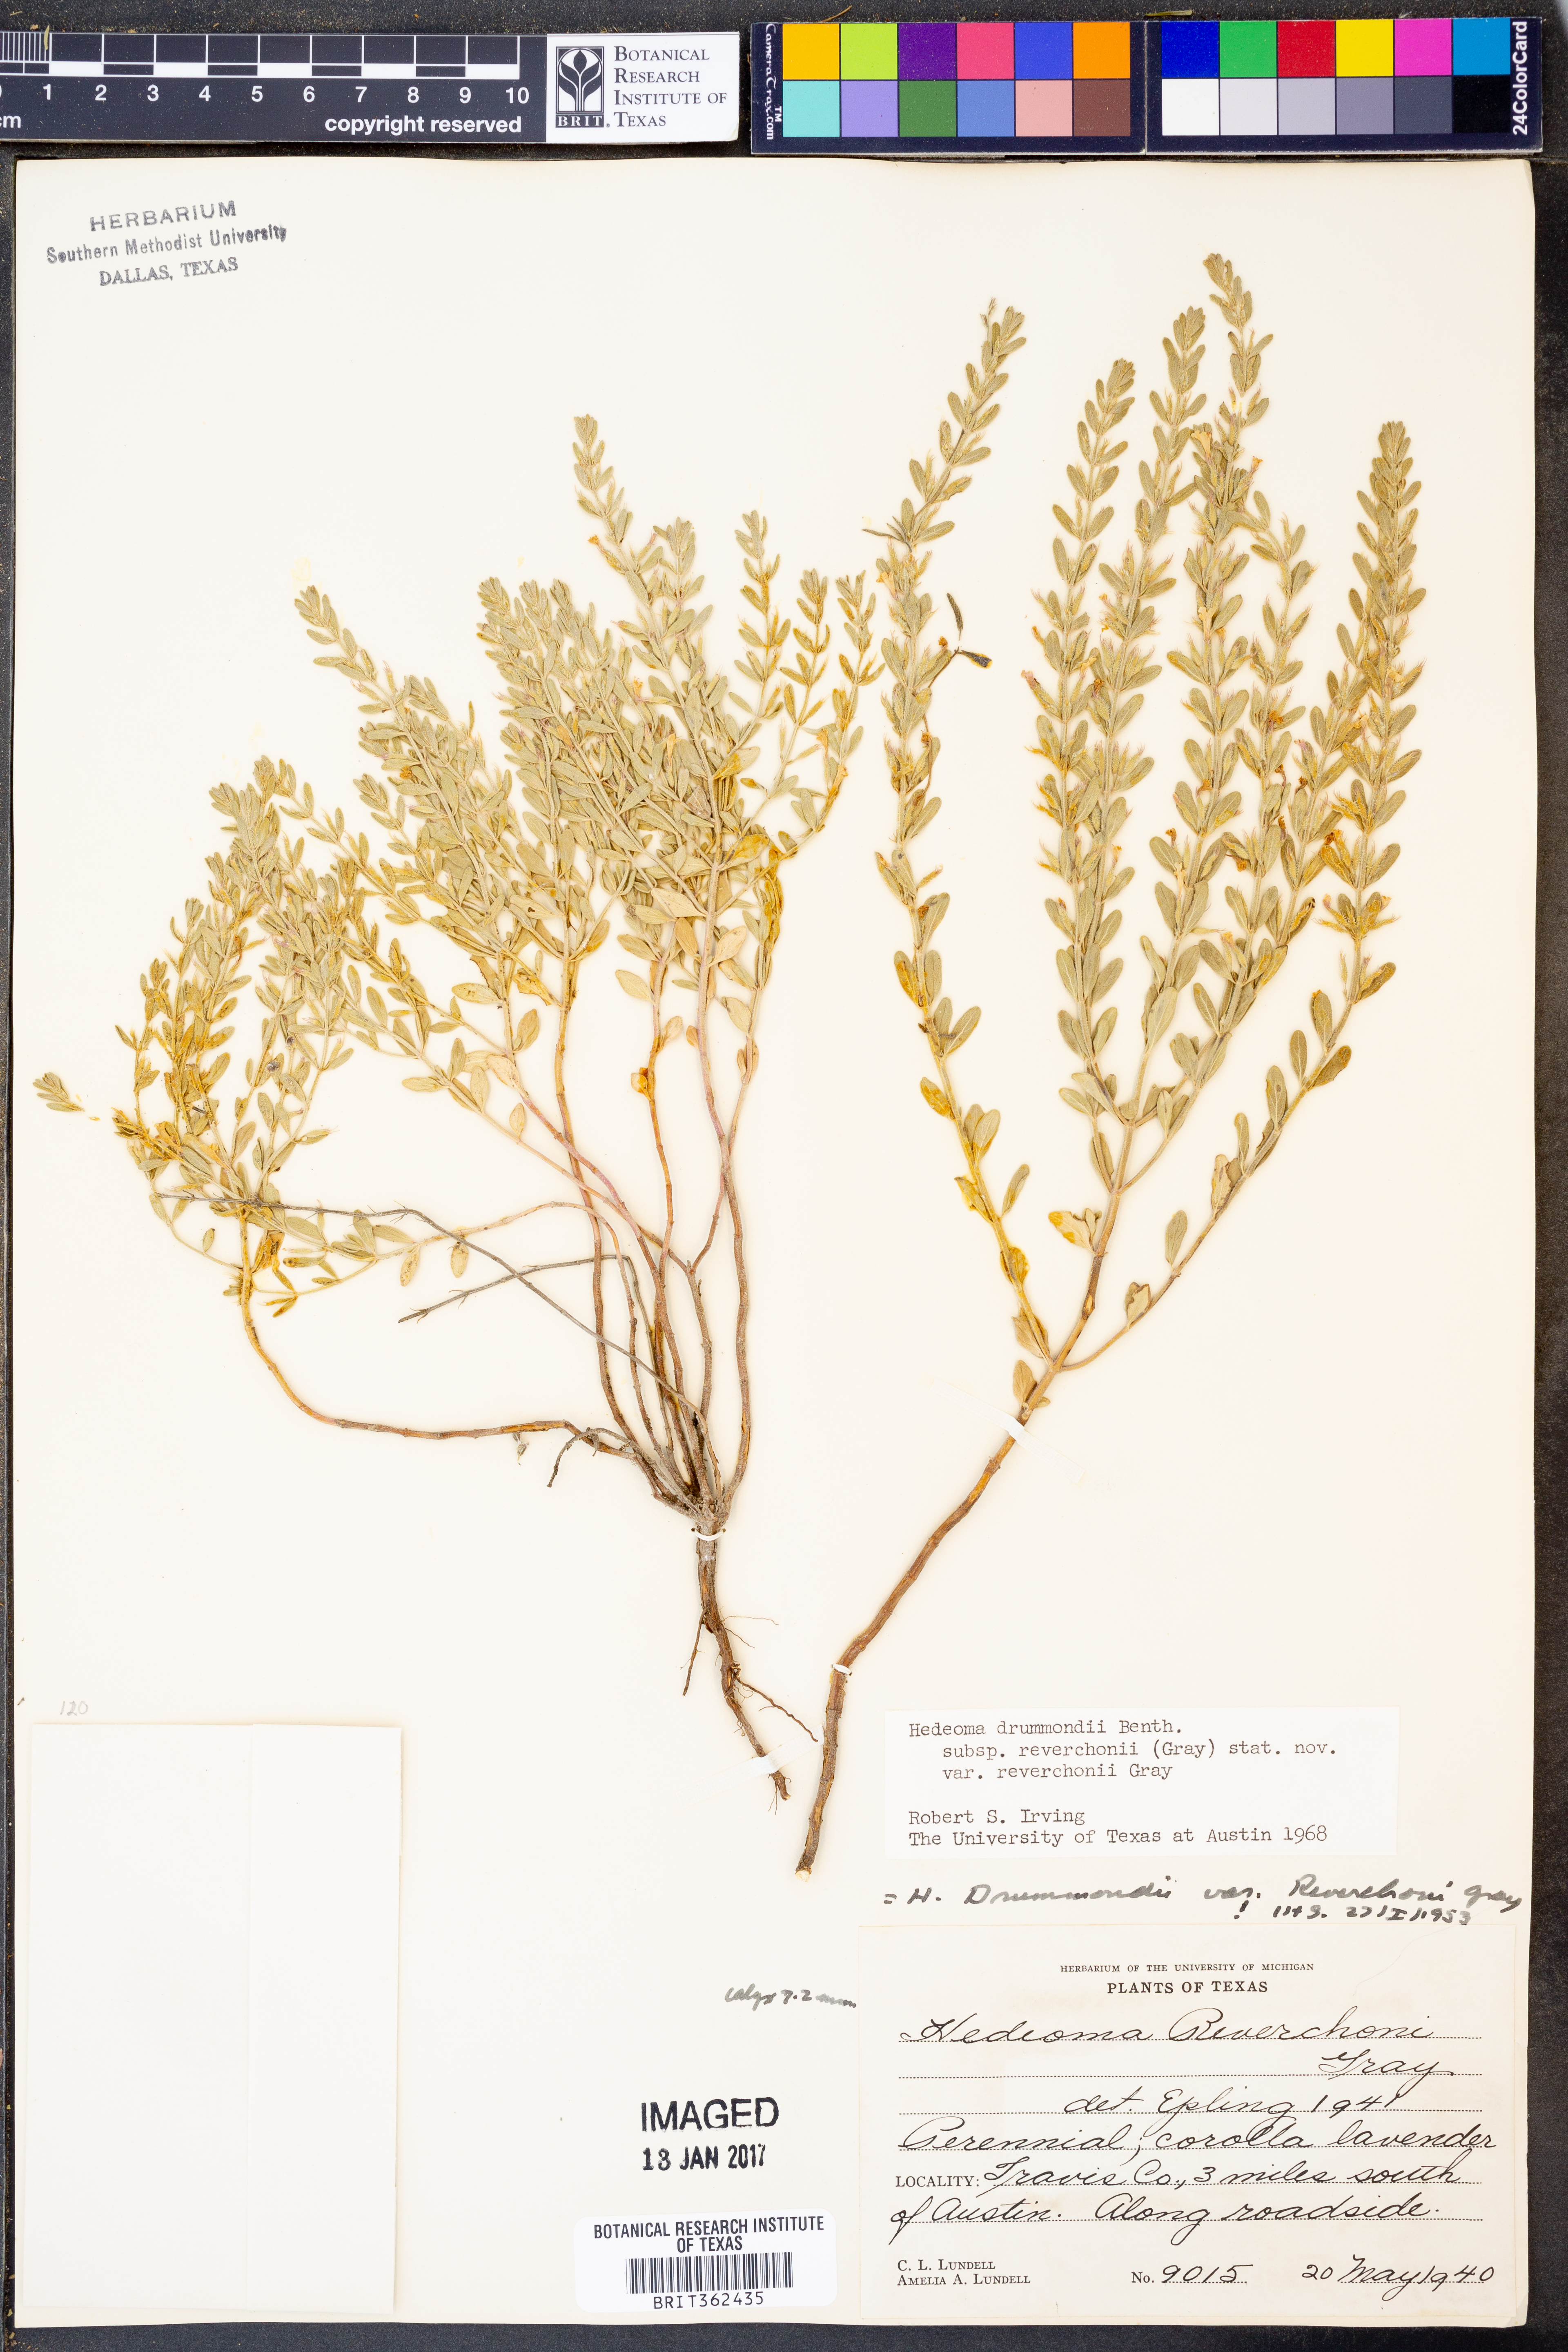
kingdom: Plantae
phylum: Tracheophyta
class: Magnoliopsida
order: Lamiales
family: Lamiaceae
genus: Hedeoma
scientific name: Hedeoma reverchonii
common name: Reverchon's false penny-royal
